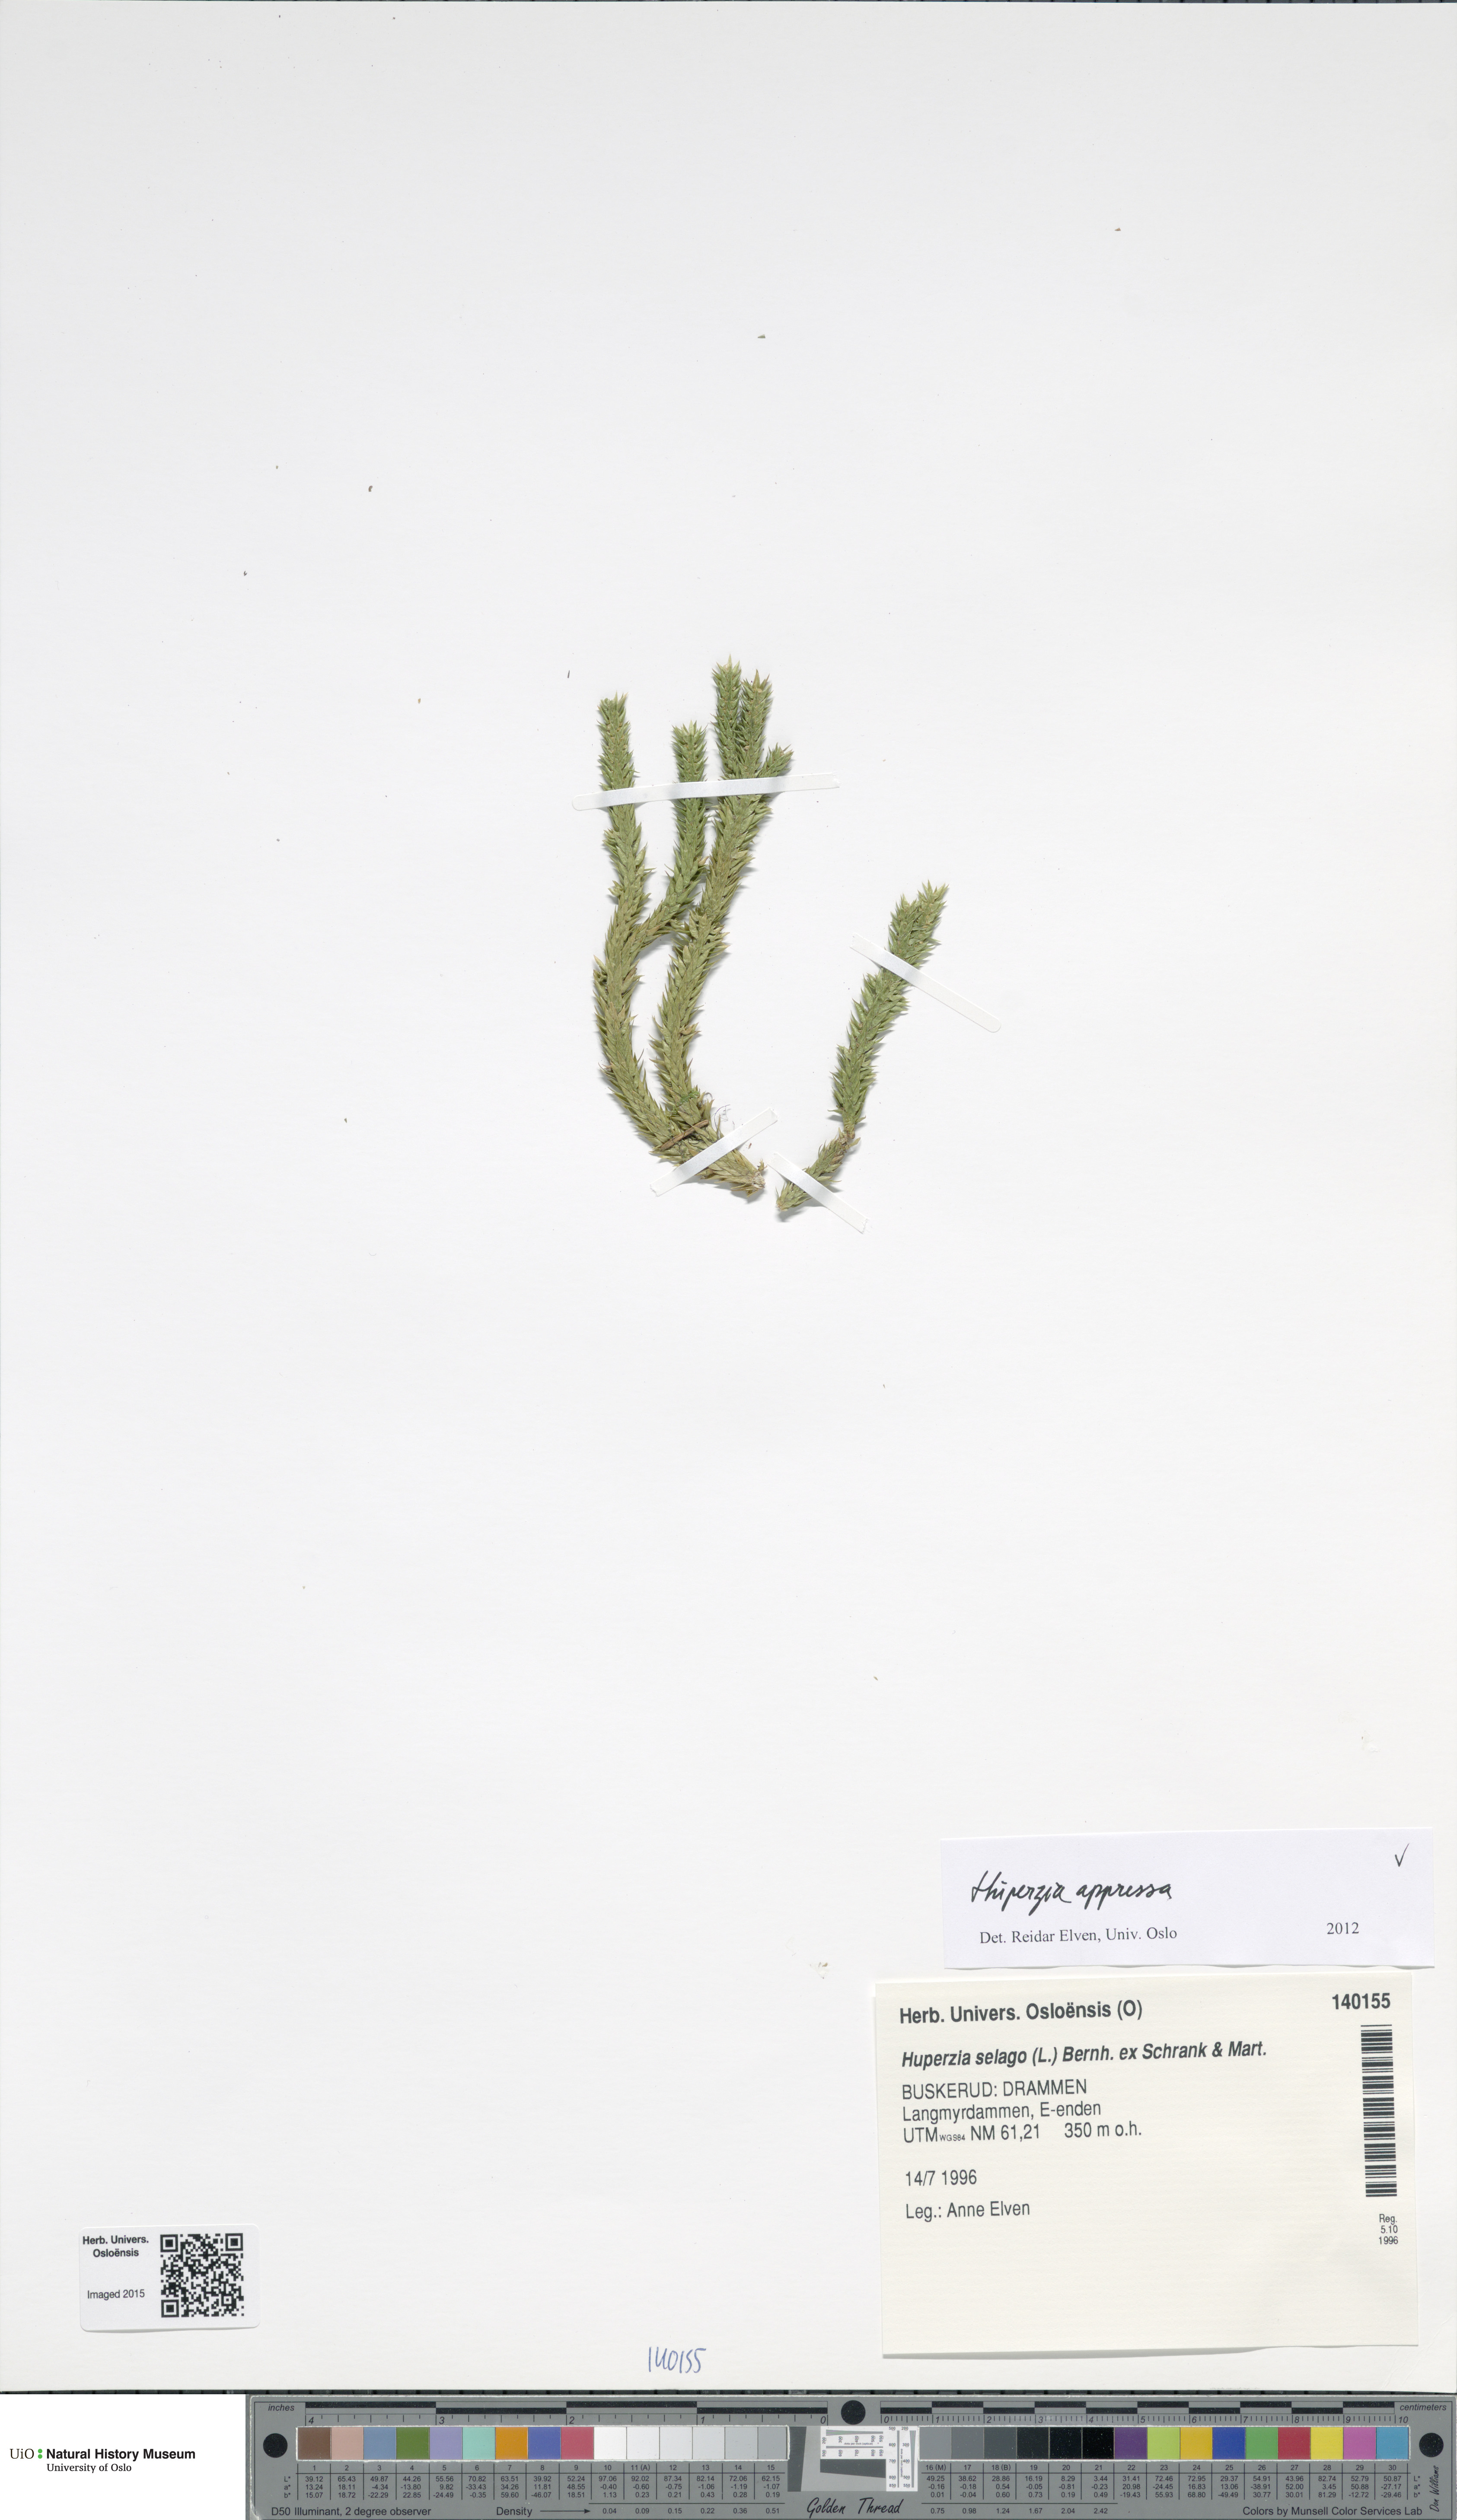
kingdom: Plantae
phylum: Tracheophyta
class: Lycopodiopsida
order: Lycopodiales
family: Lycopodiaceae
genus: Huperzia
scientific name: Huperzia selago
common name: Northern firmoss
